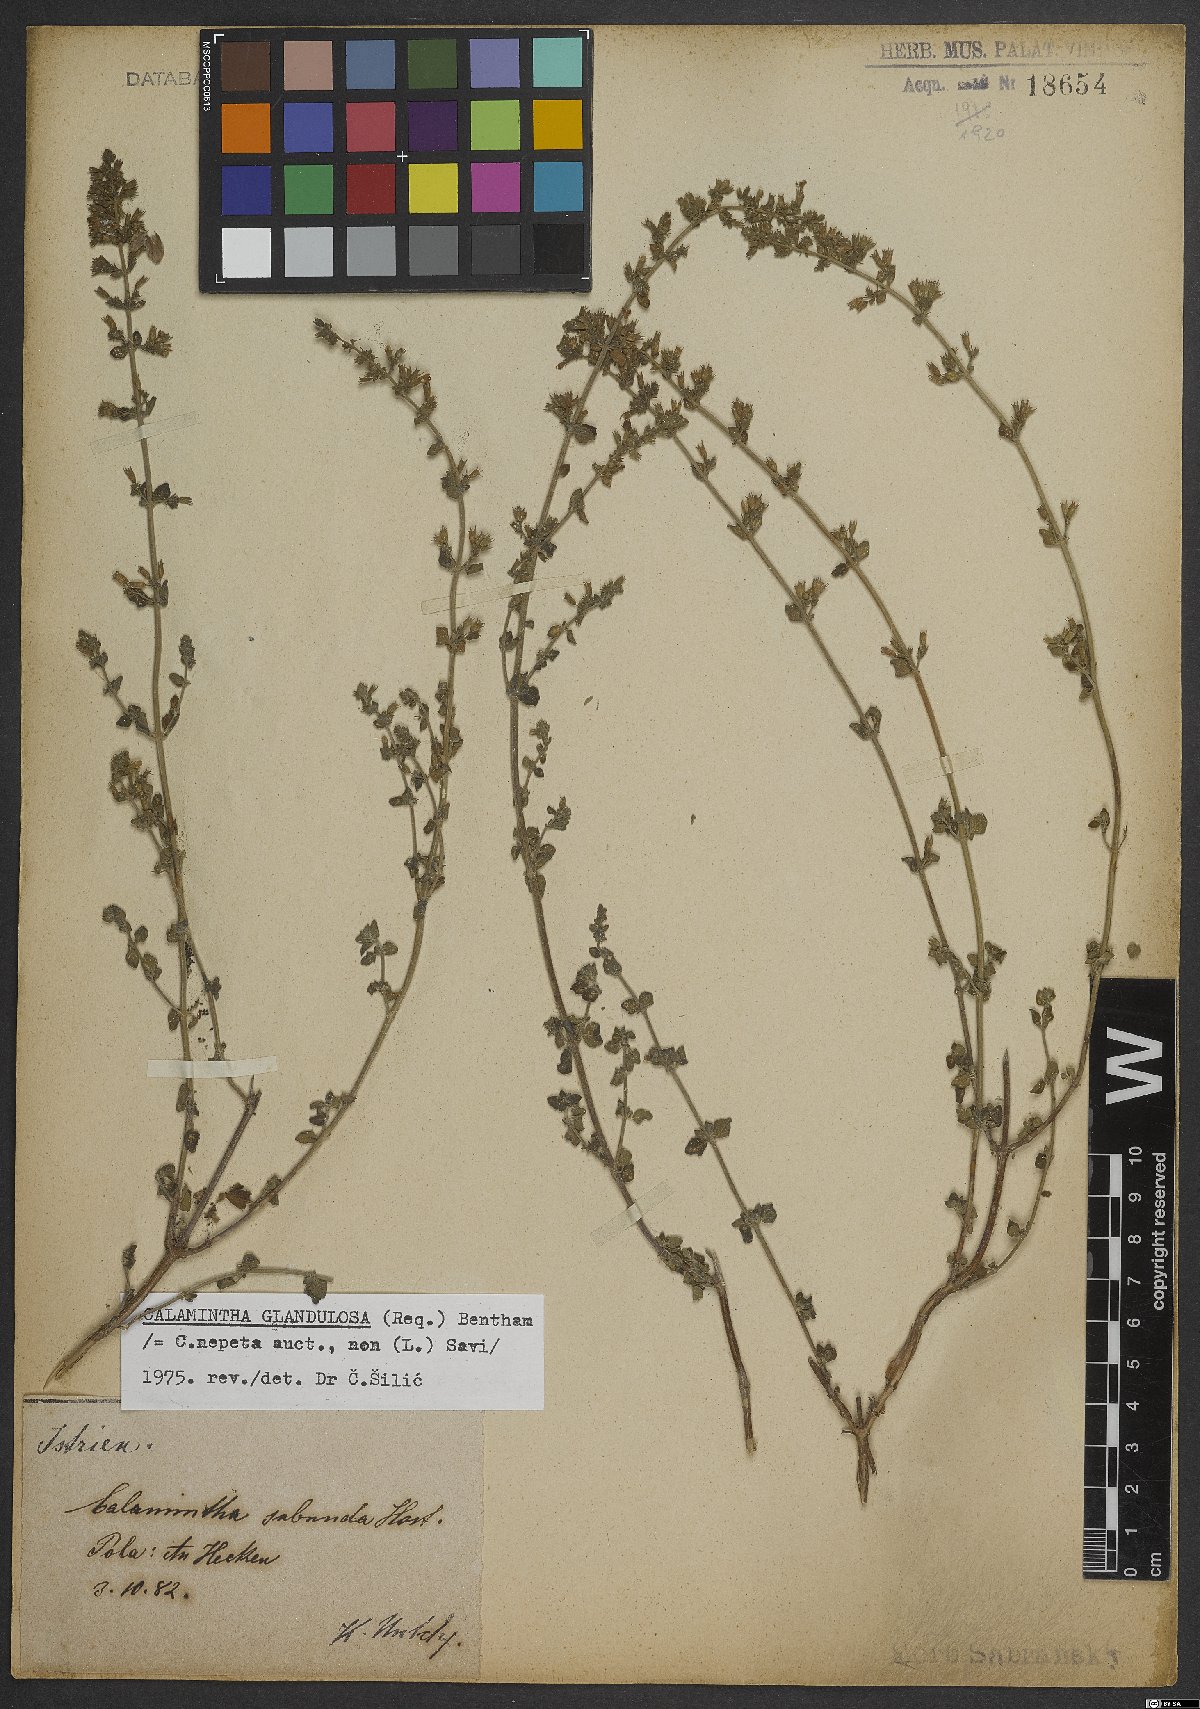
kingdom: Plantae
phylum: Tracheophyta
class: Magnoliopsida
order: Lamiales
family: Lamiaceae
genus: Clinopodium
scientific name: Clinopodium nepeta
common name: Lesser calamint
